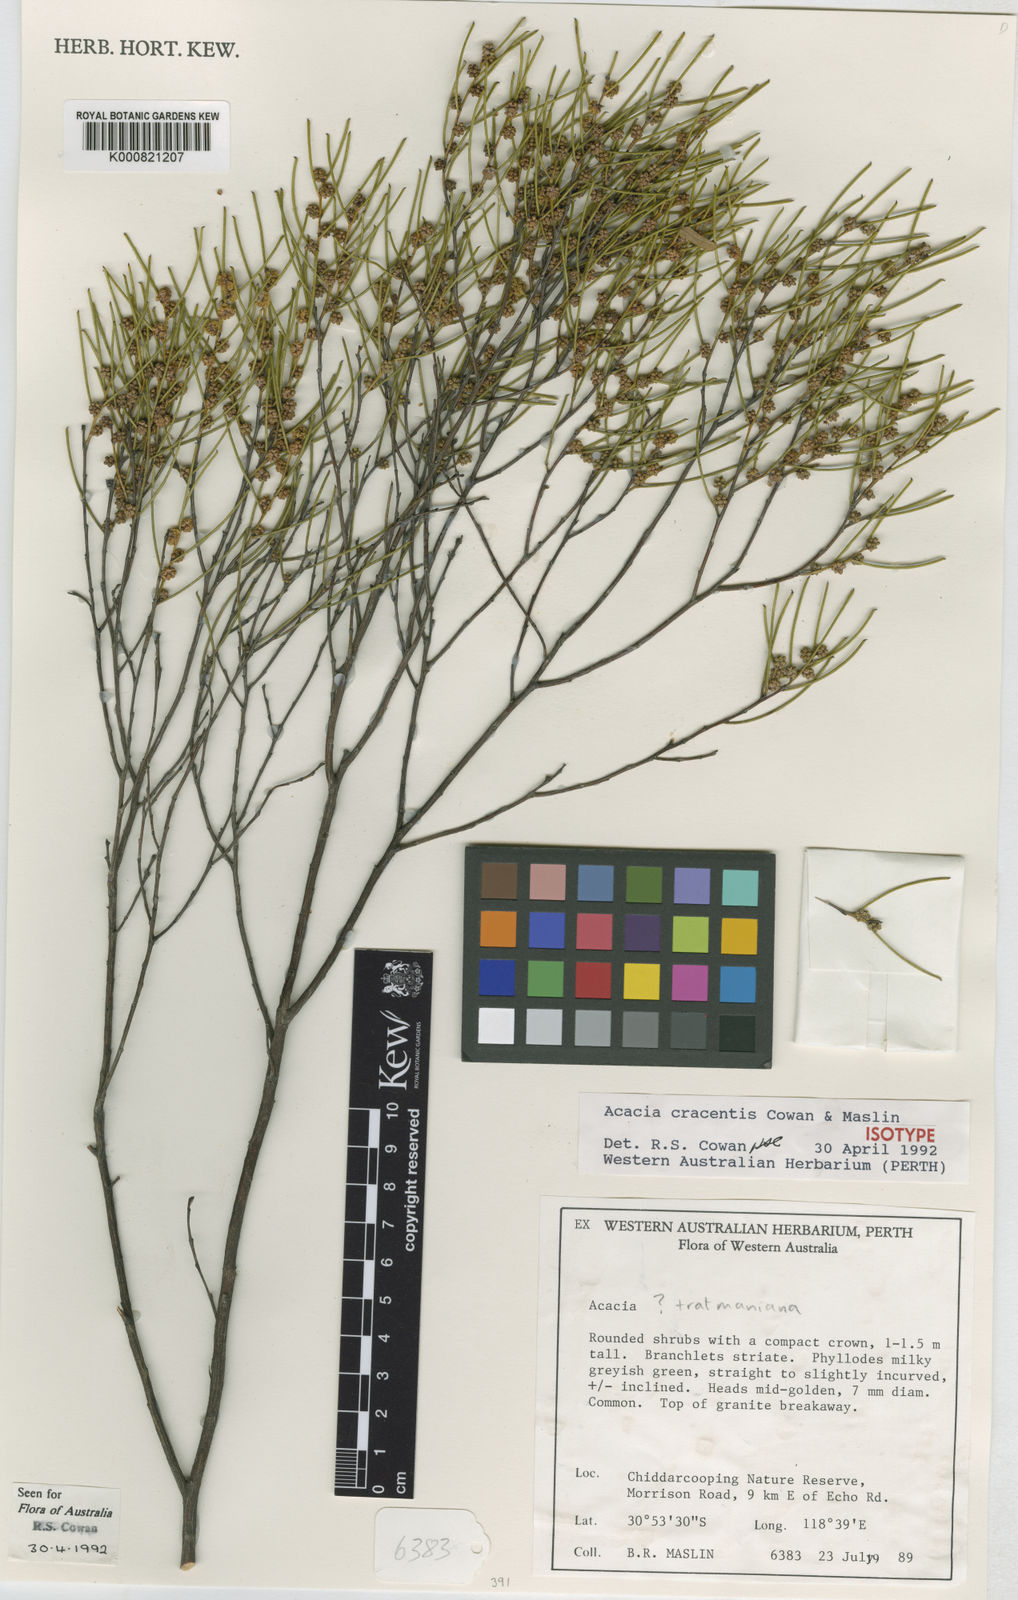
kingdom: Plantae
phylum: Tracheophyta
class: Magnoliopsida
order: Fabales
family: Fabaceae
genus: Acacia
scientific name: Acacia cracentis
